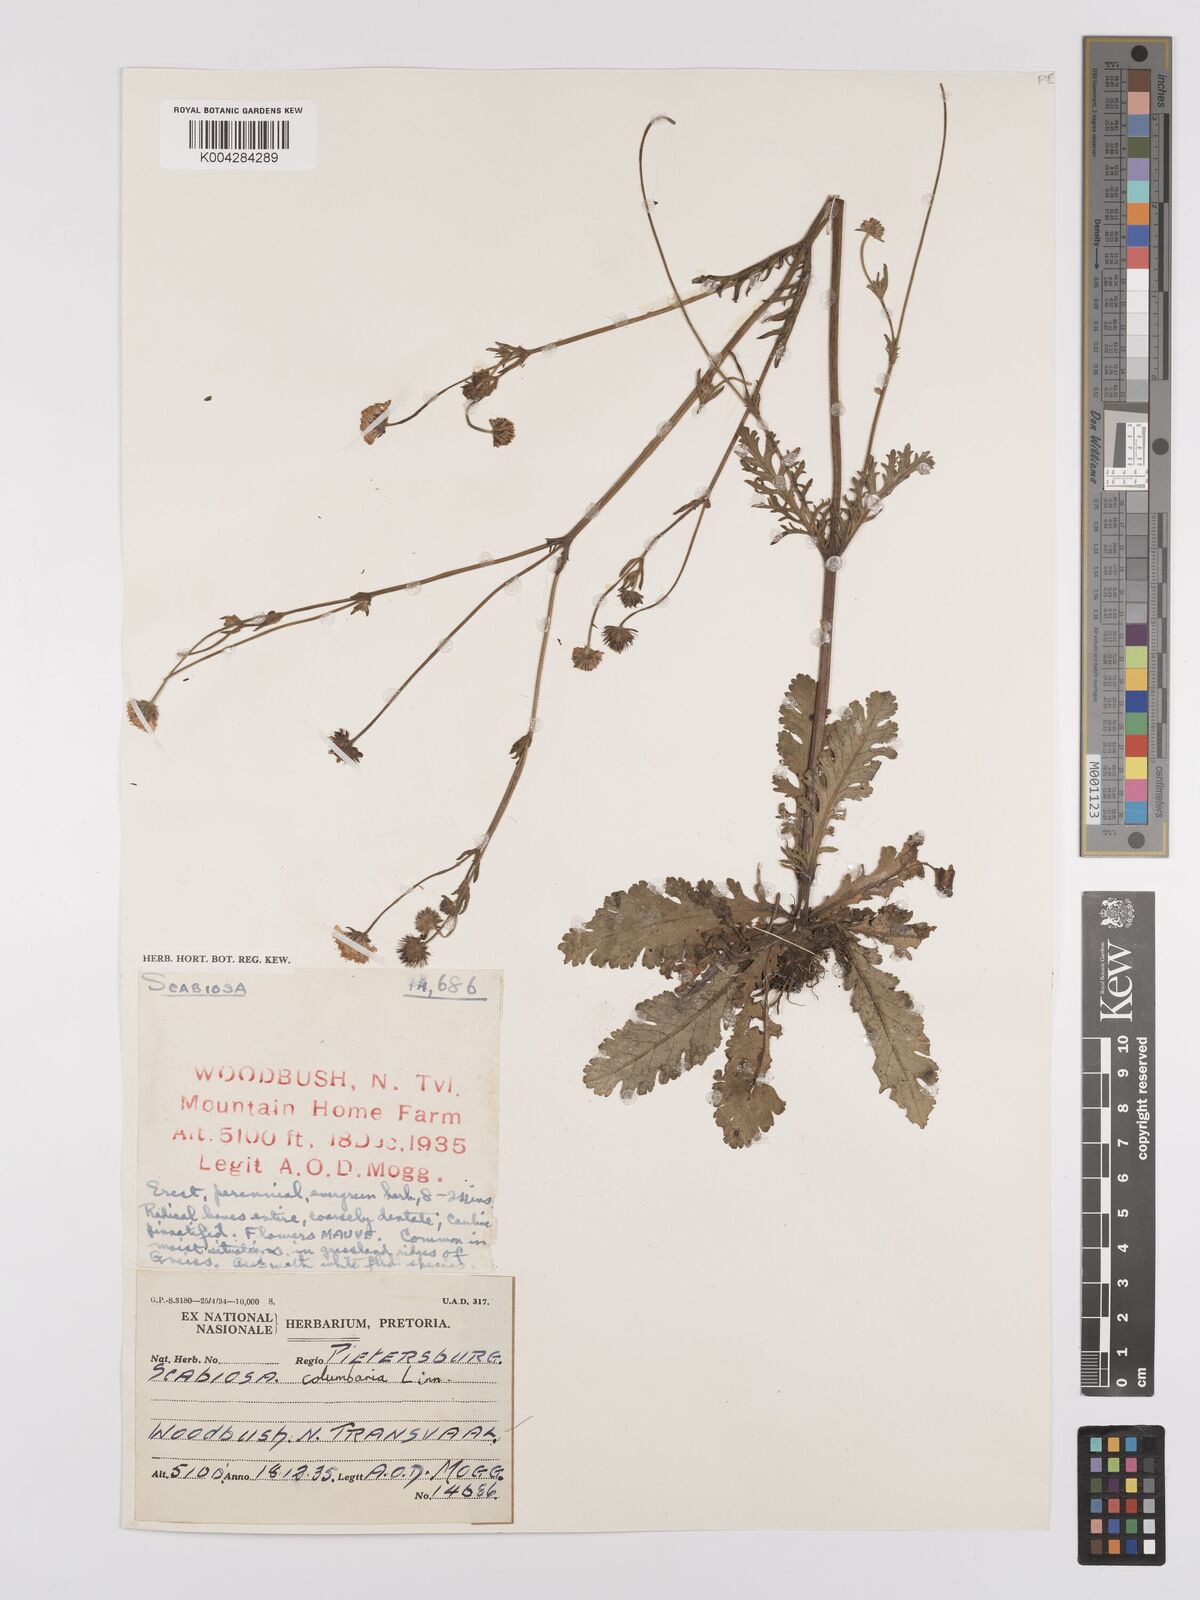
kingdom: Plantae
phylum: Tracheophyta
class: Magnoliopsida
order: Dipsacales
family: Caprifoliaceae
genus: Scabiosa
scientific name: Scabiosa columbaria
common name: Small scabious
